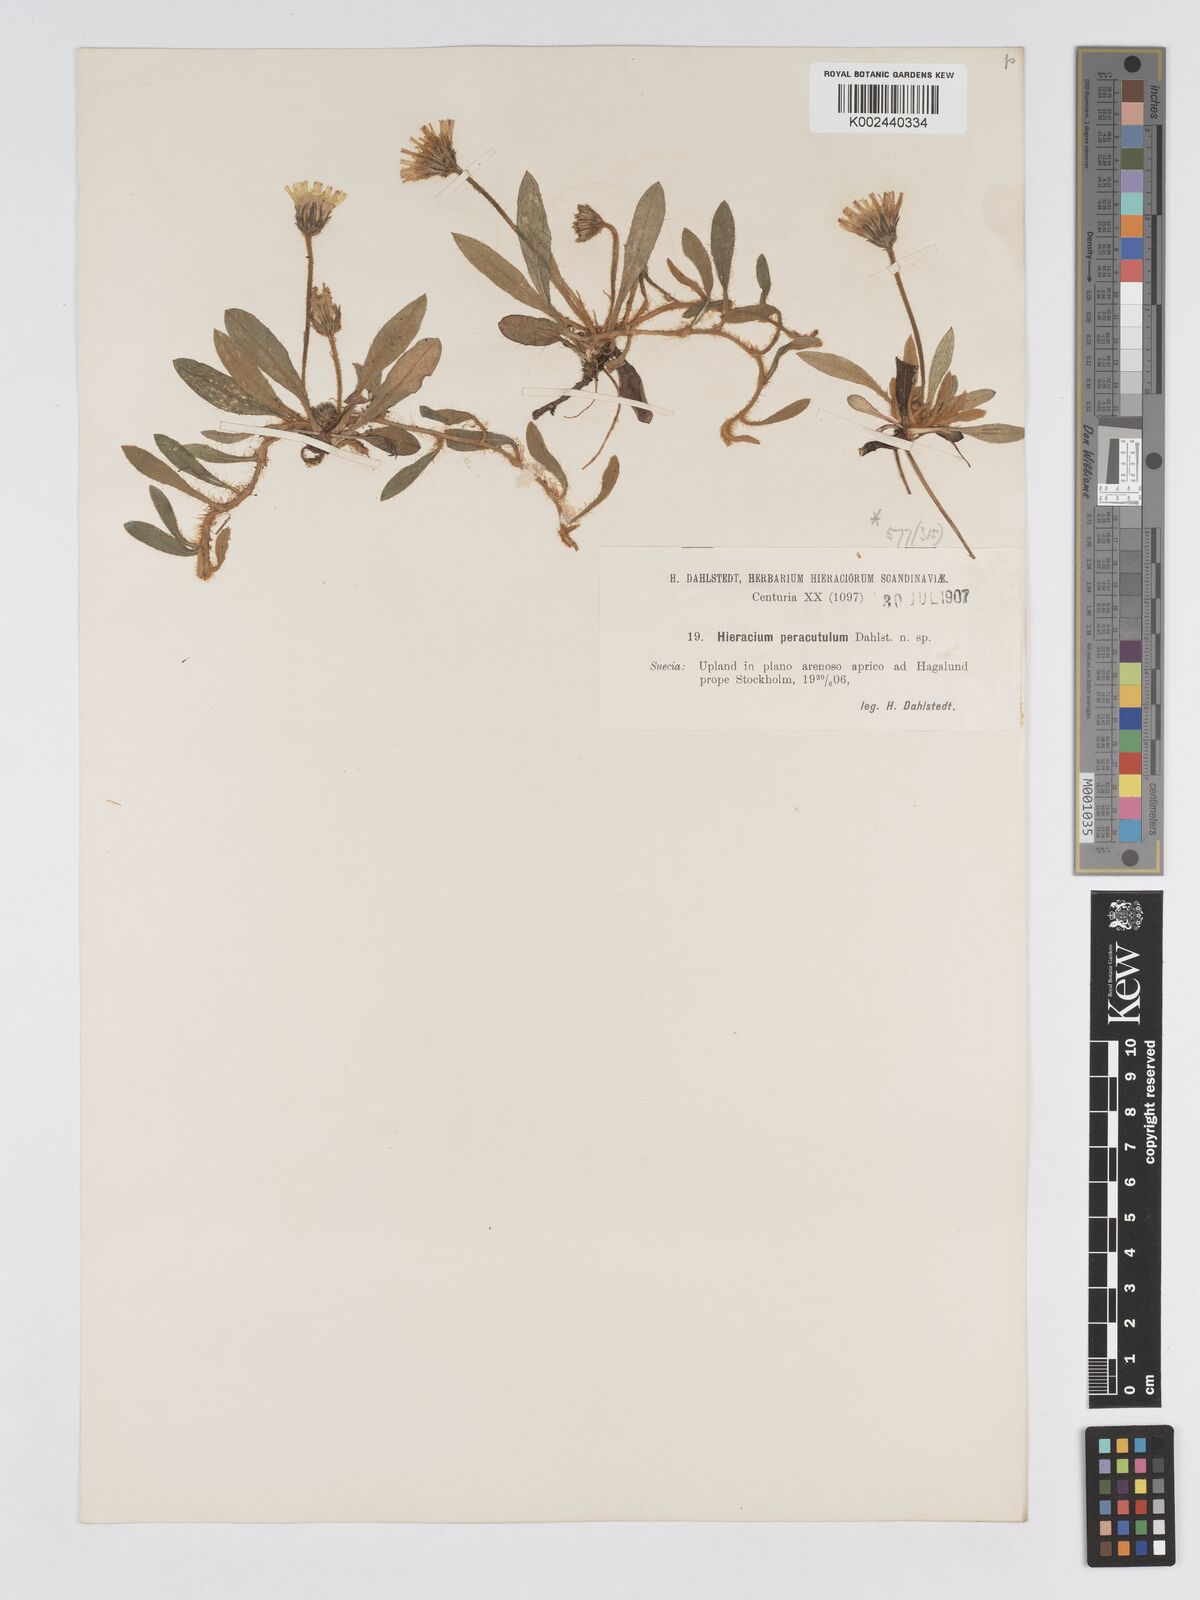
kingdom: Plantae
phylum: Tracheophyta
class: Magnoliopsida
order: Asterales
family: Asteraceae
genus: Pilosella
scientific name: Pilosella officinarum
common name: Mouse-ear hawkweed
